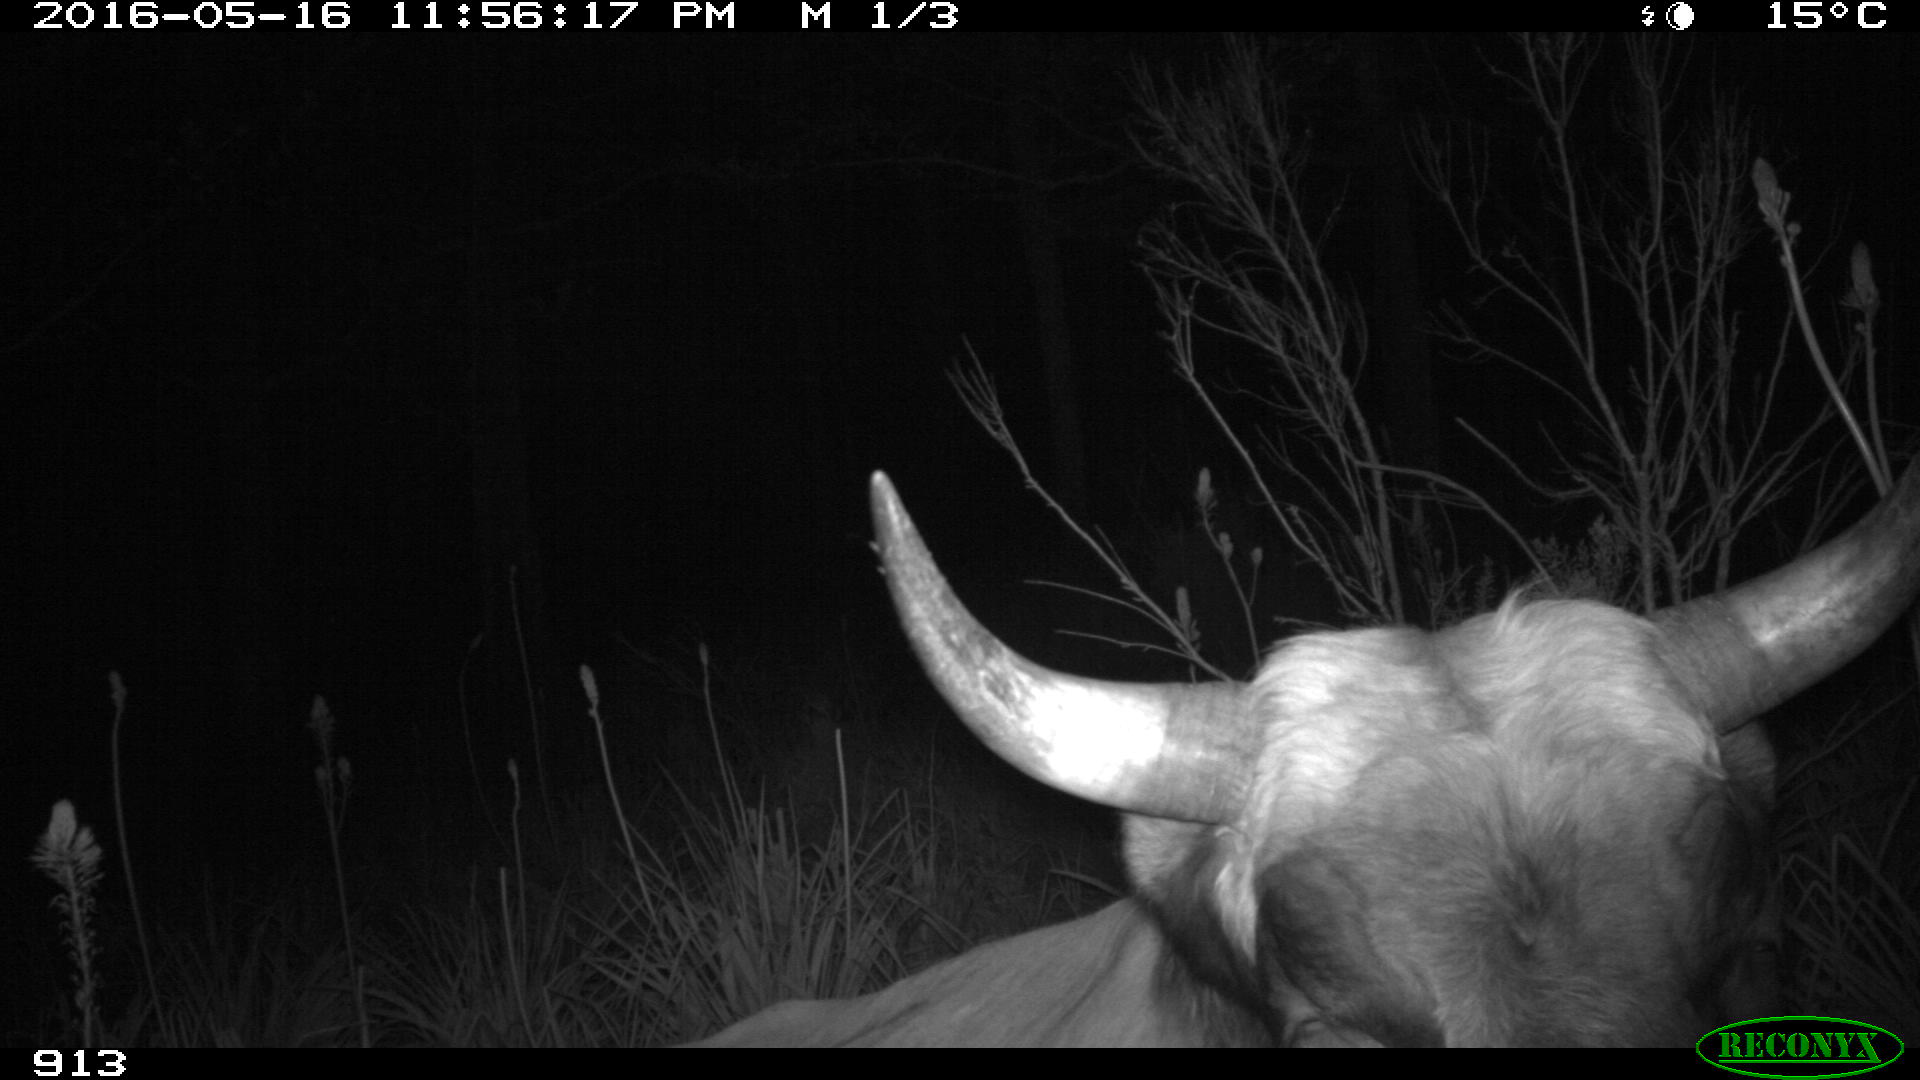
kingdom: Animalia
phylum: Chordata
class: Mammalia
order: Artiodactyla
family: Bovidae
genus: Bos
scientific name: Bos taurus
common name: Domesticated cattle
